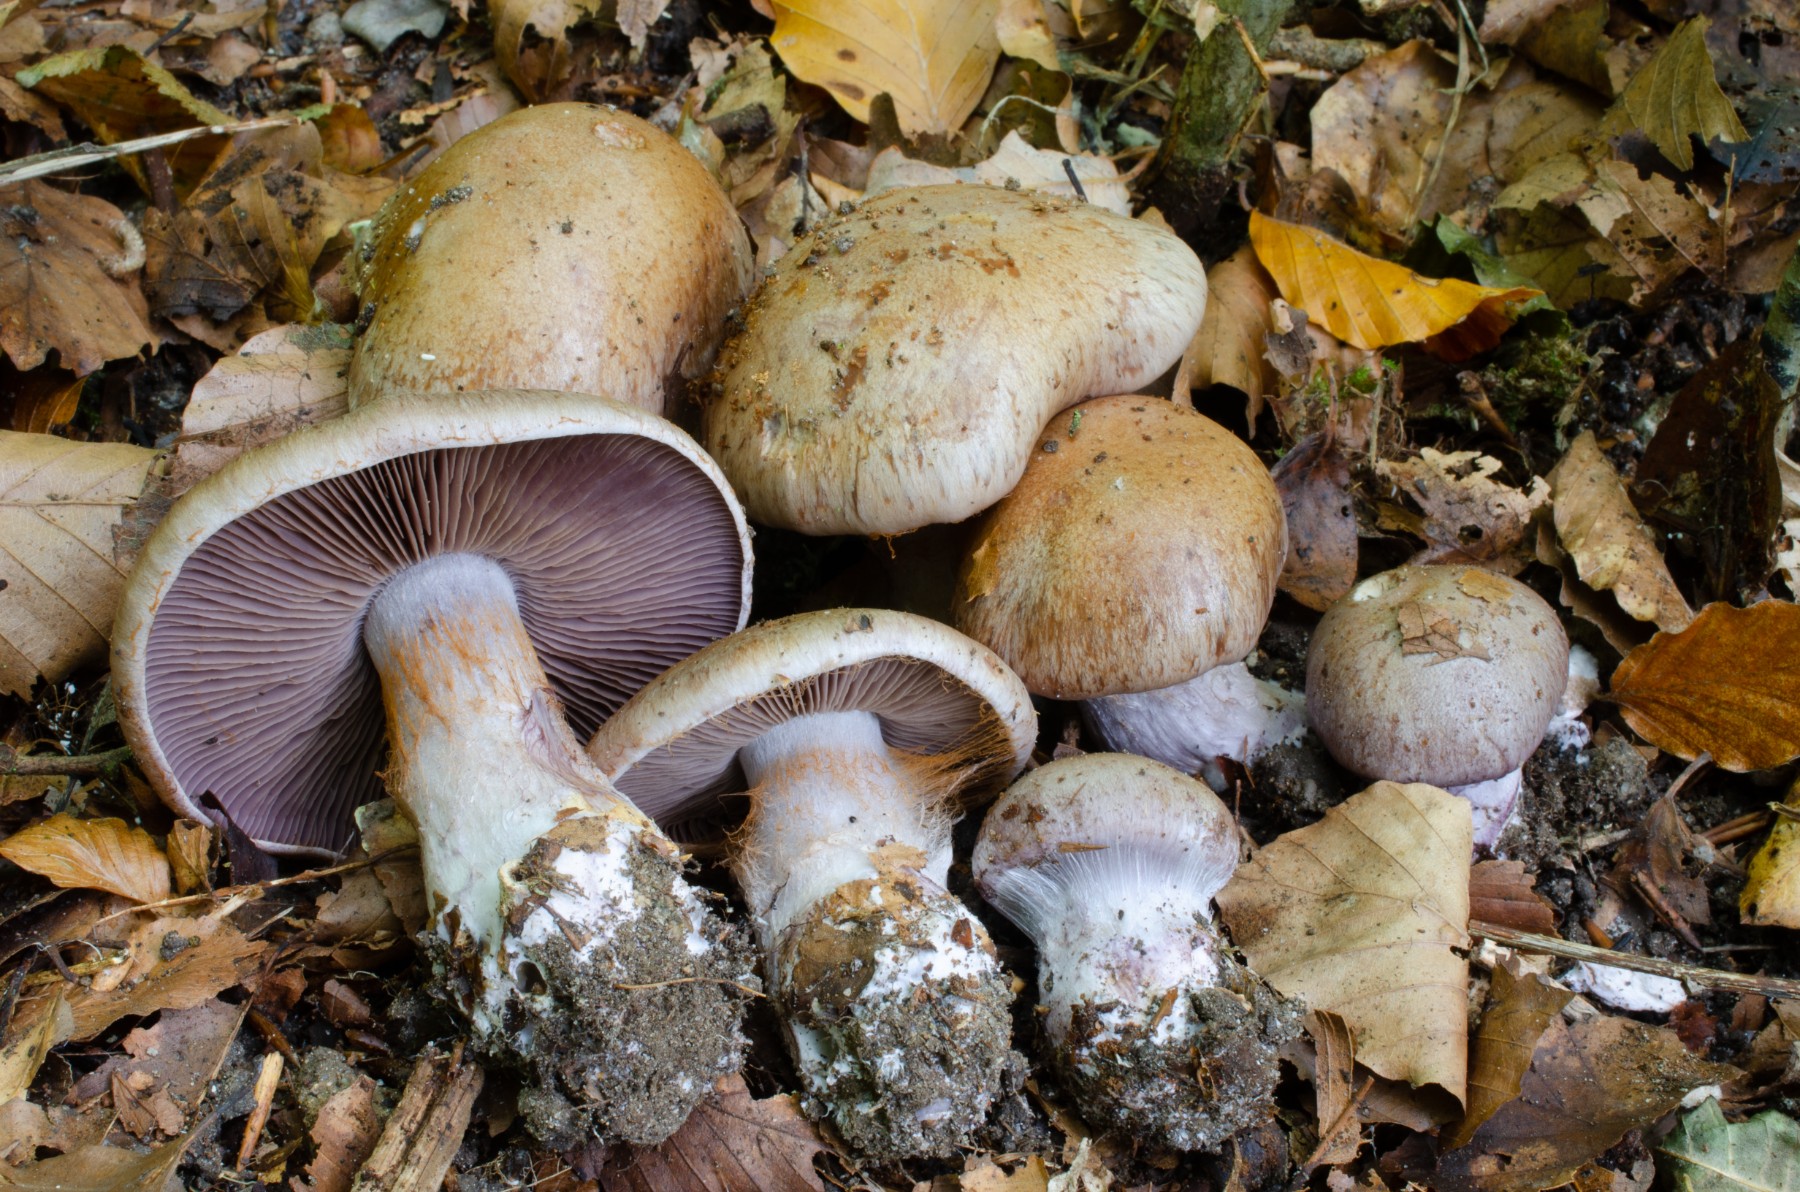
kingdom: Fungi
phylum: Basidiomycota
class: Agaricomycetes
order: Agaricales
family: Cortinariaceae
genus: Thaxterogaster
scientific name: Thaxterogaster subpurpurascens
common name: mørkblånende slørhat
